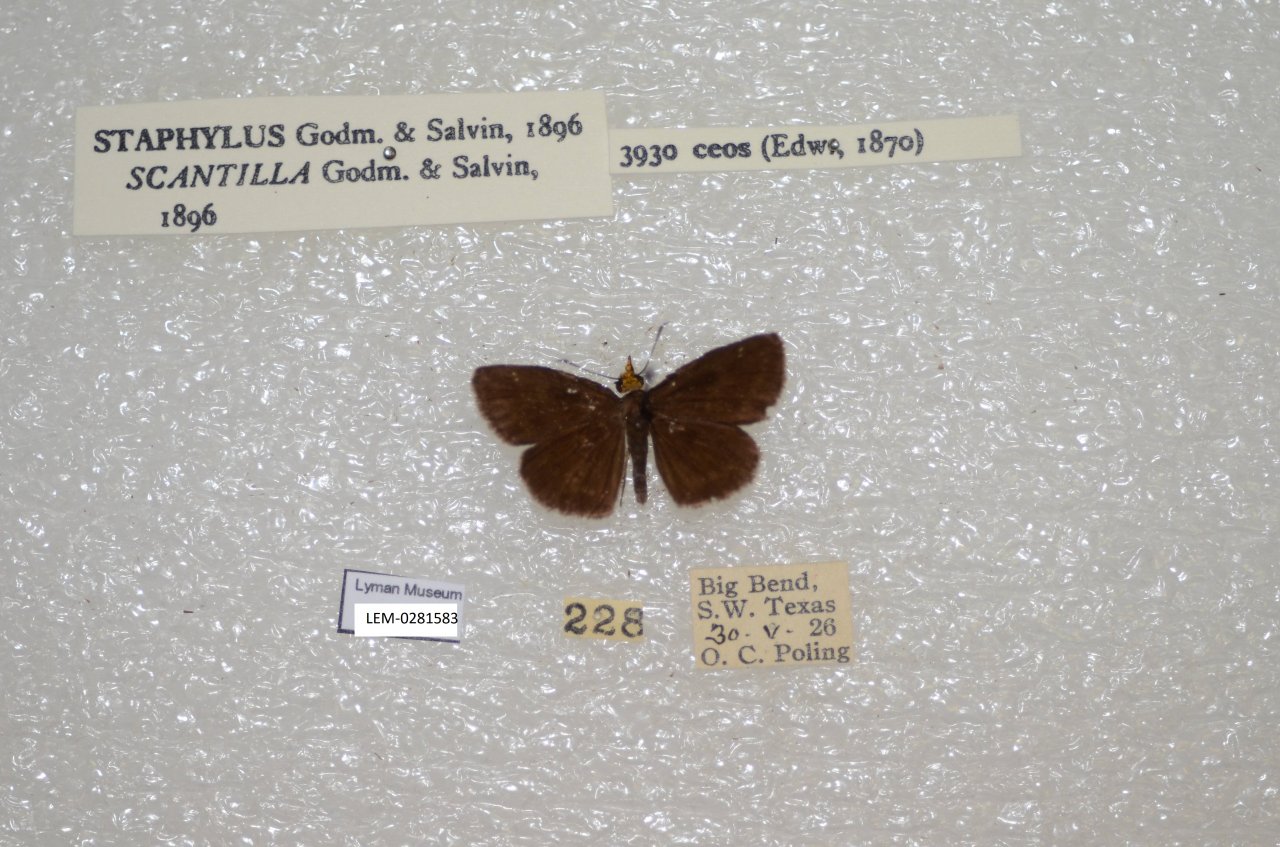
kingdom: Animalia
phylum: Arthropoda
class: Insecta
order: Lepidoptera
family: Hesperiidae
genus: Staphylus
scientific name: Staphylus ceos
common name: Golden-headed Scallopwing
